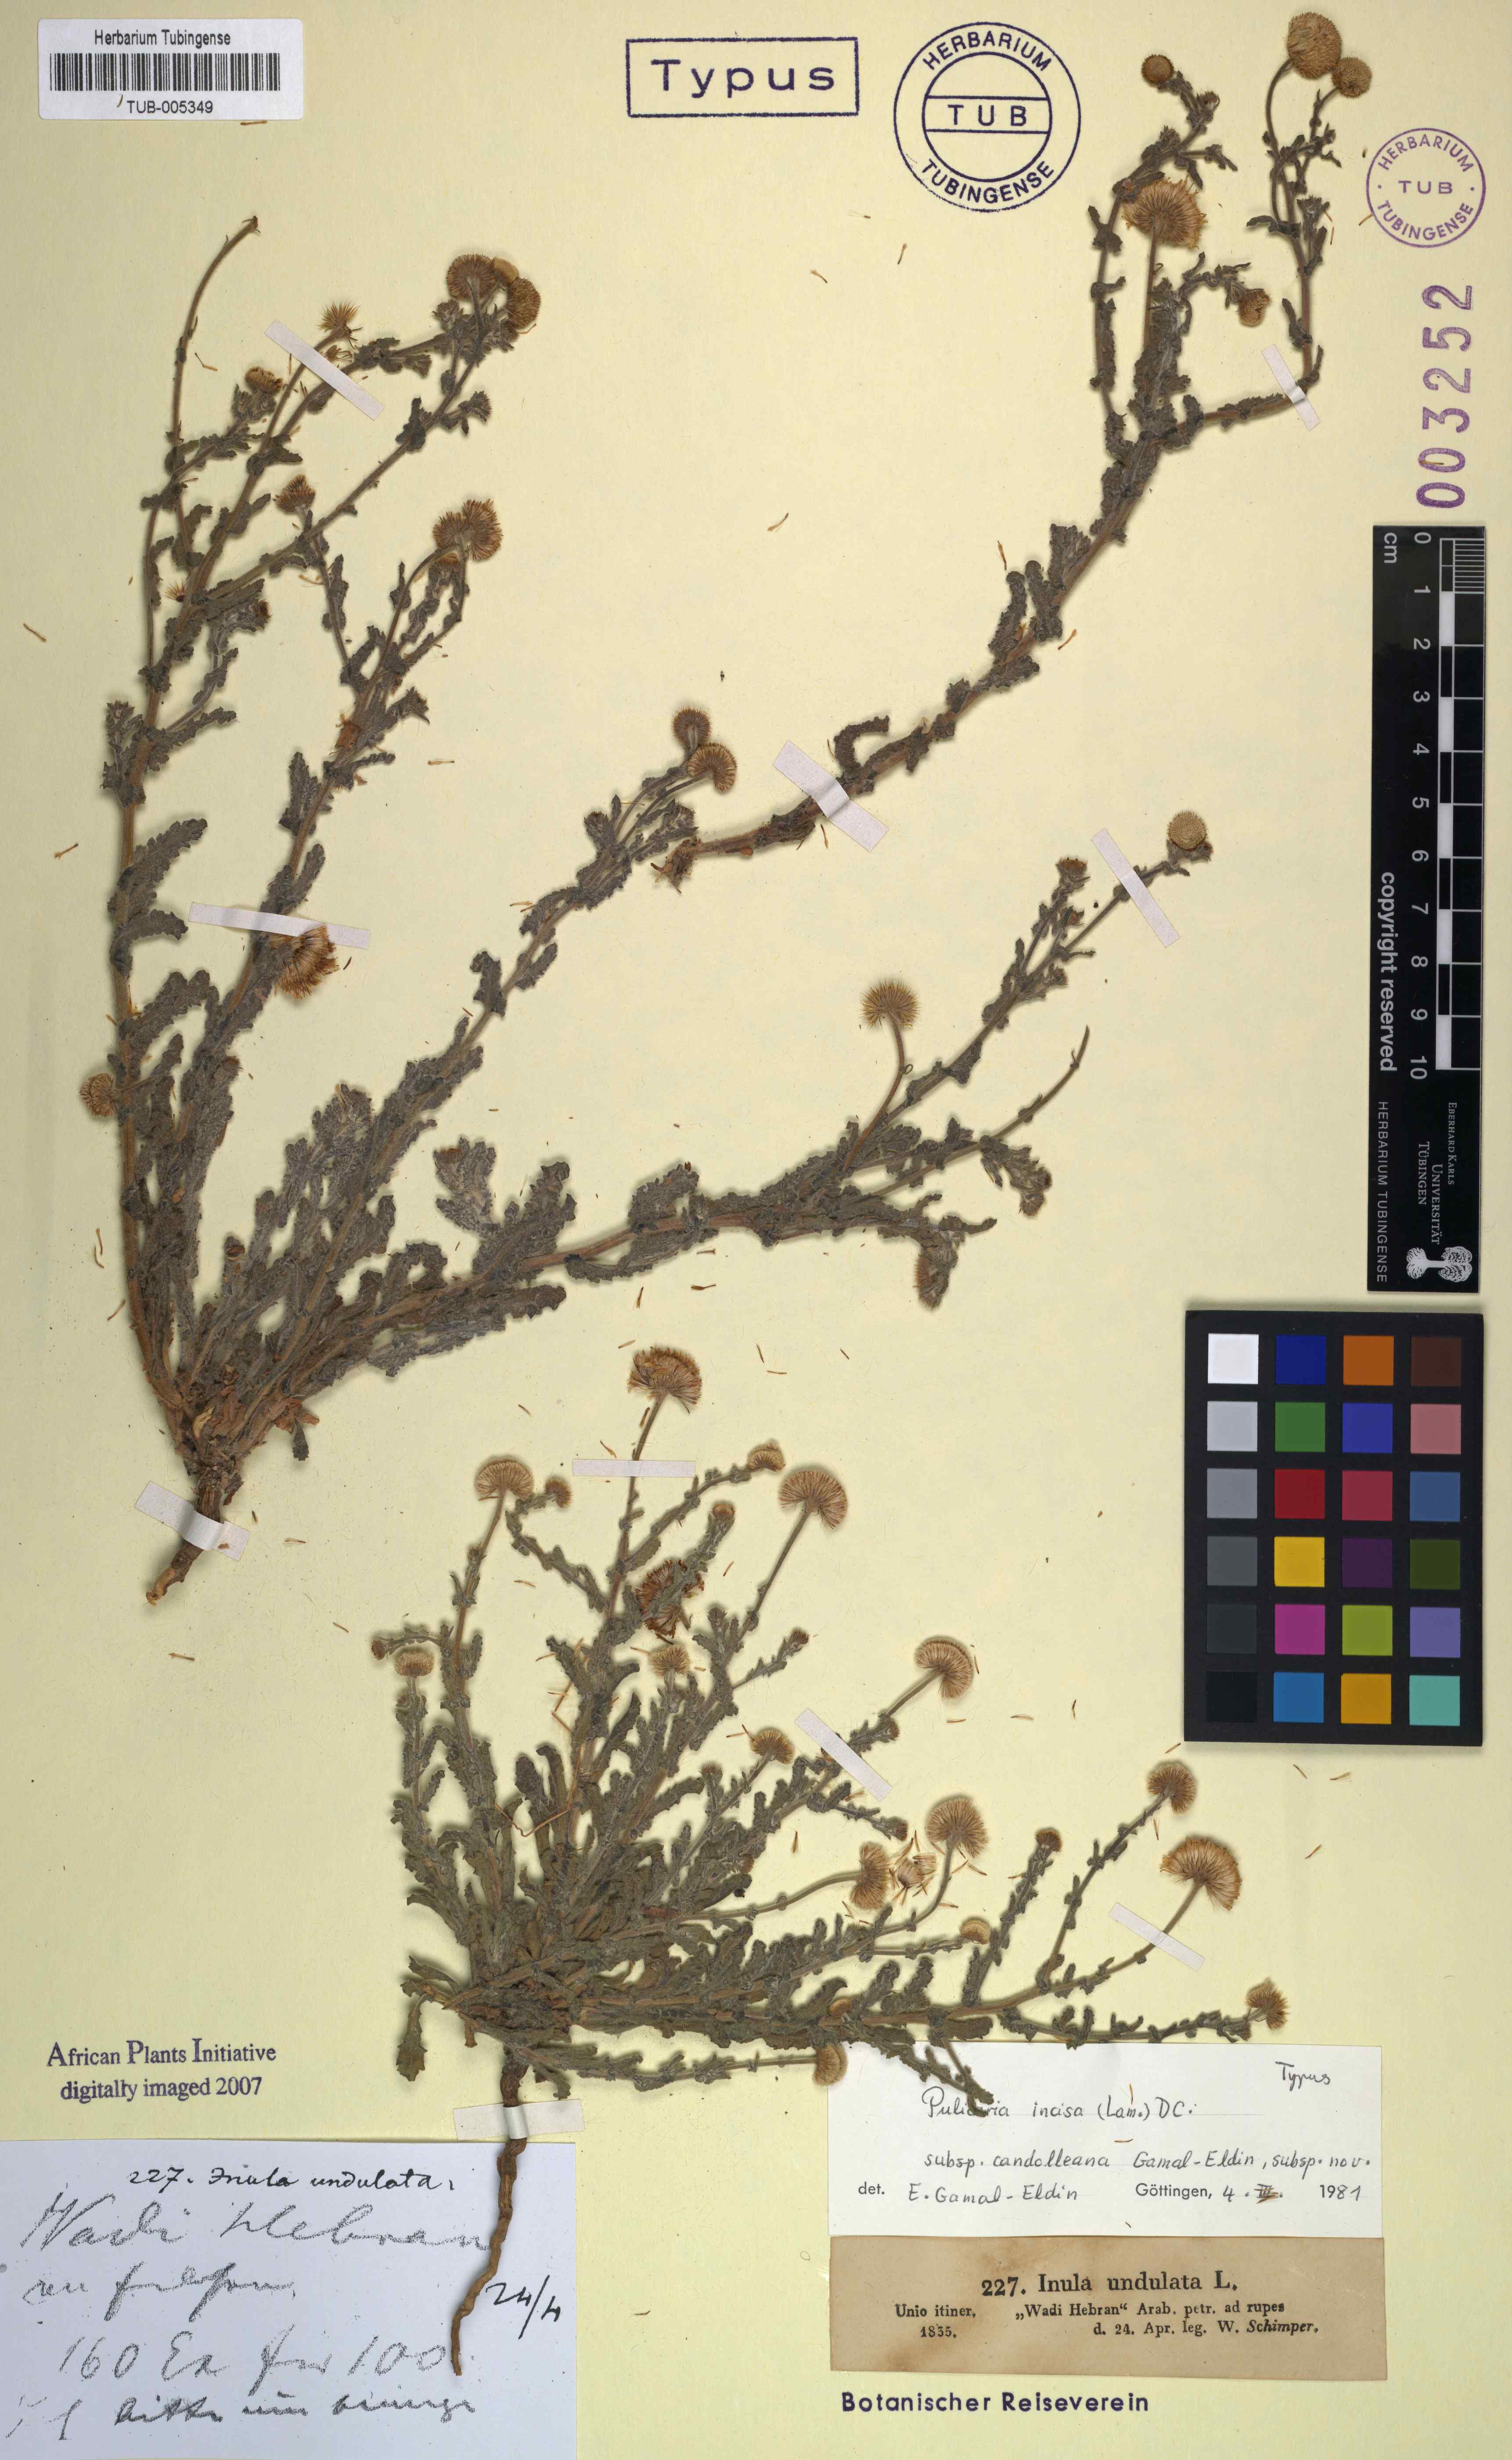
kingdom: Plantae
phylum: Tracheophyta
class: Magnoliopsida
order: Asterales
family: Asteraceae
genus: Pulicaria
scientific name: Pulicaria incisa
